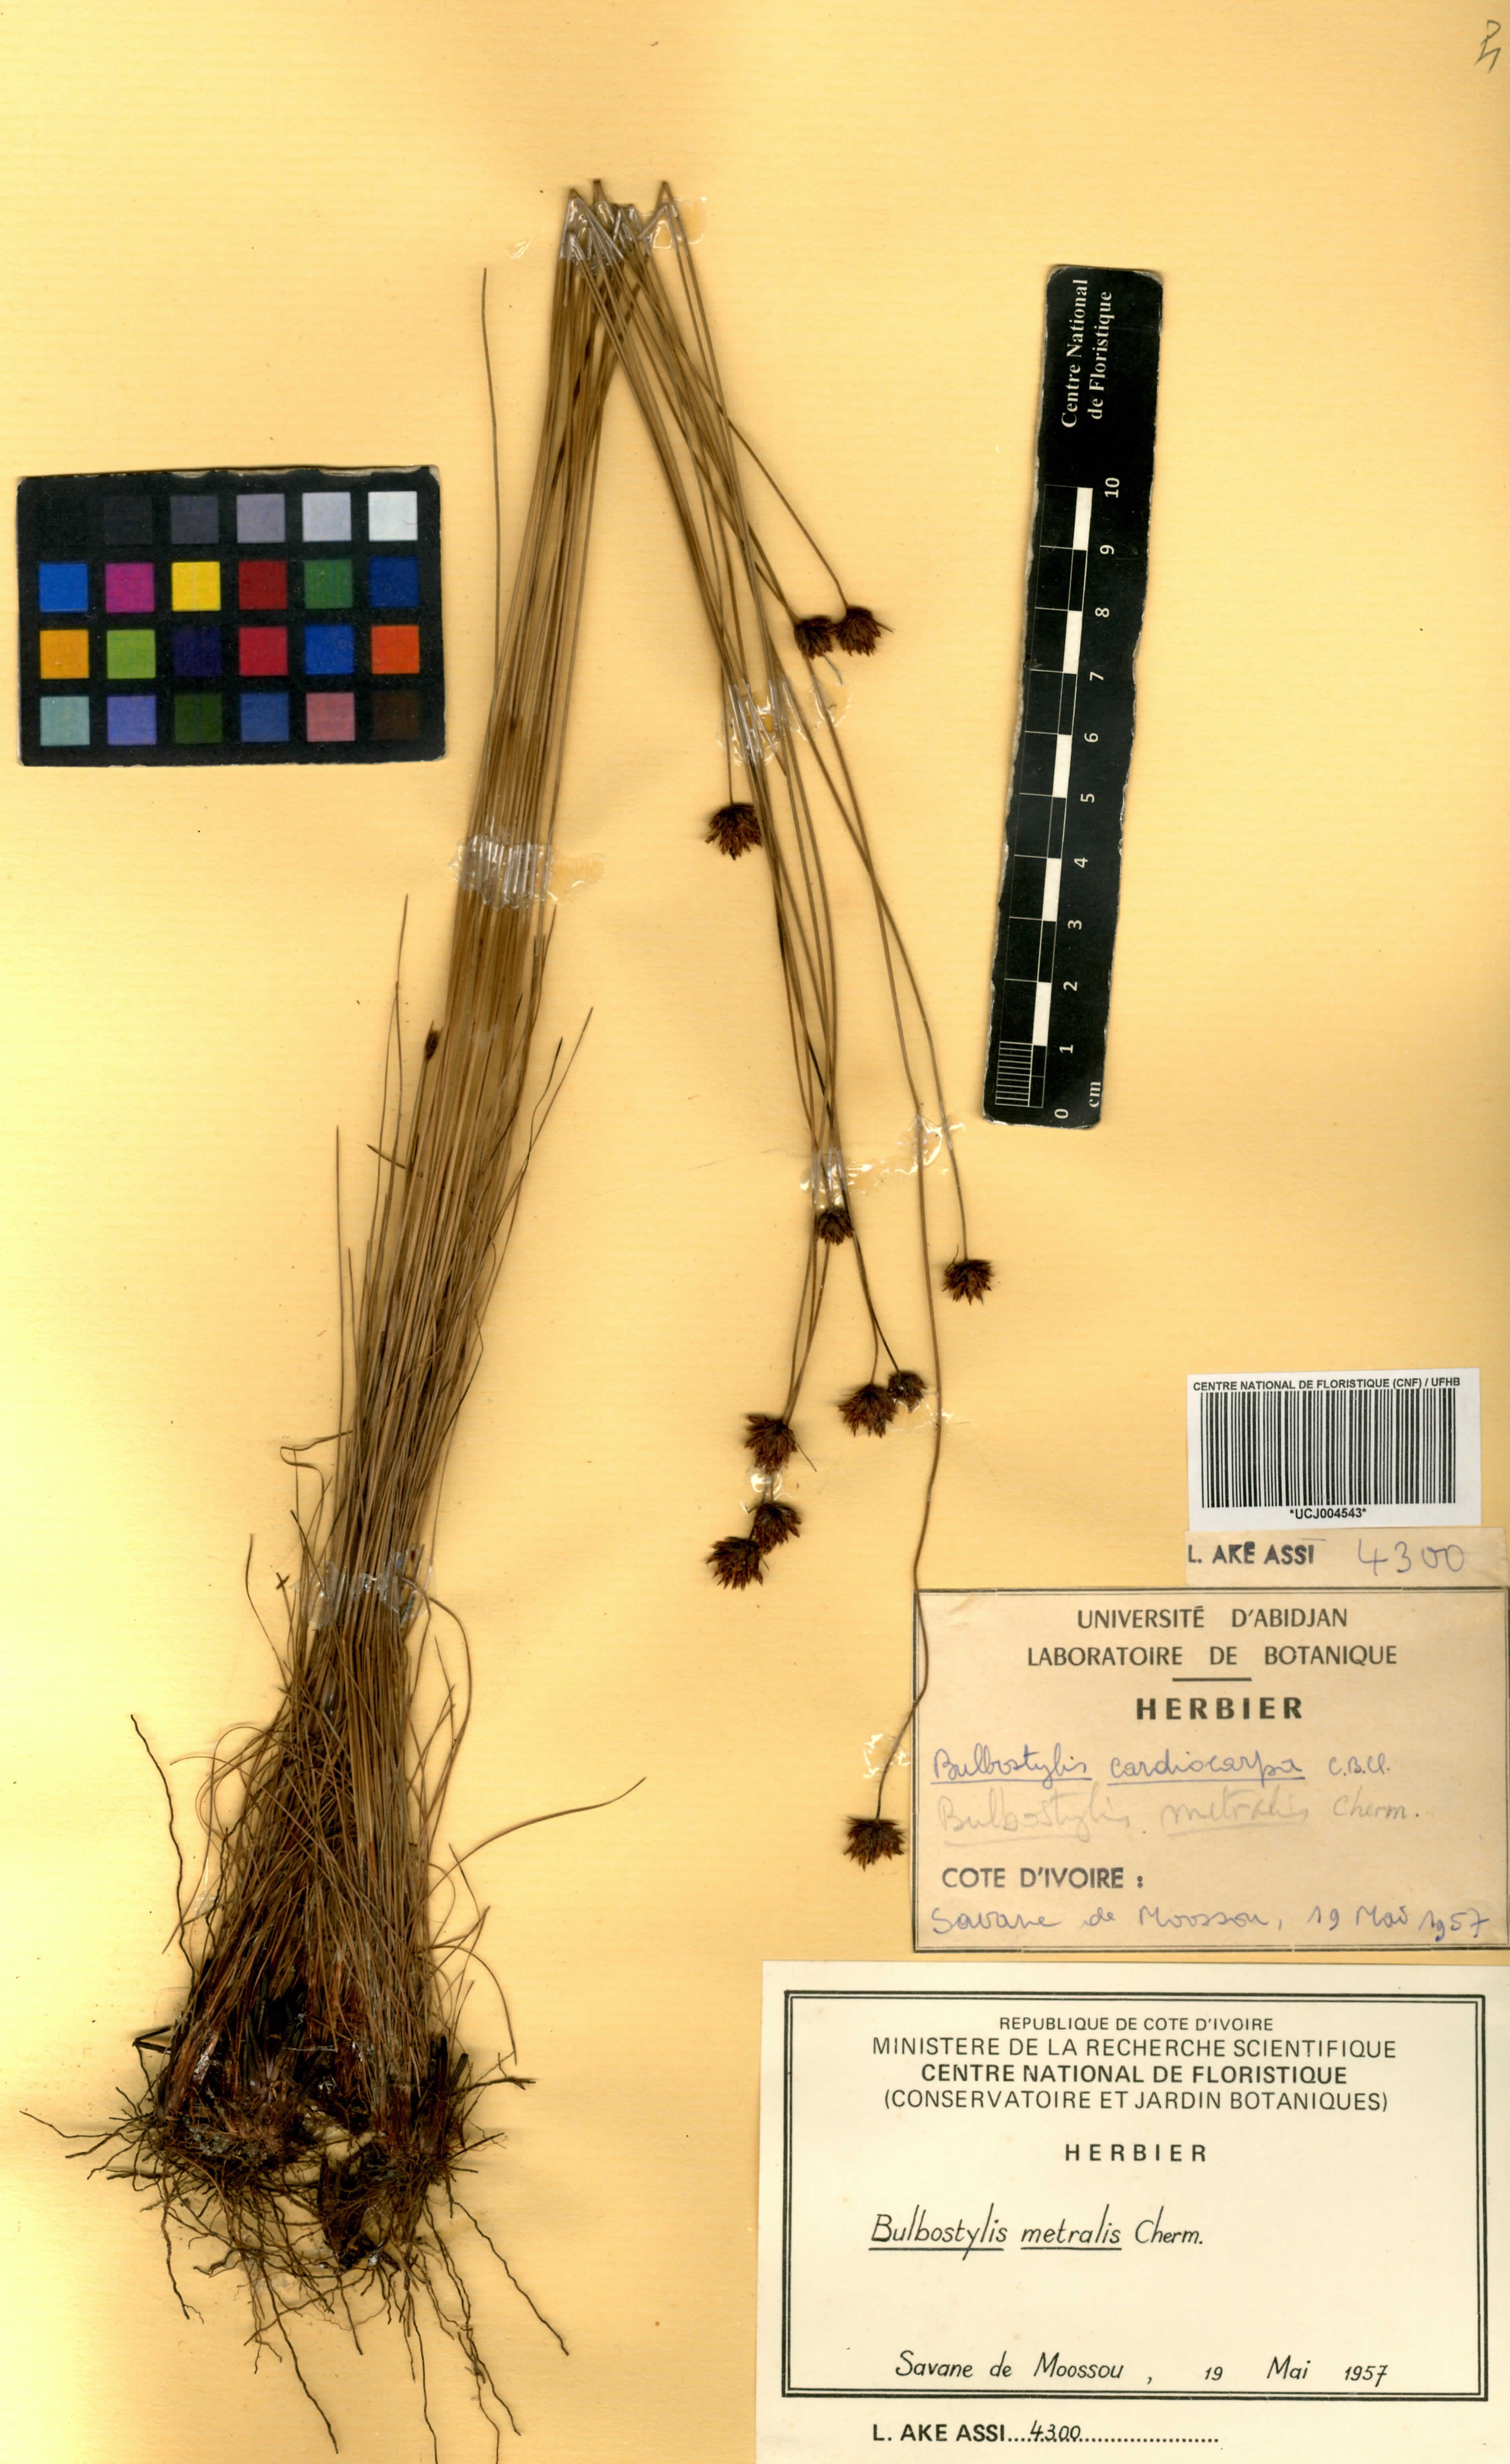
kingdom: Plantae
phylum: Tracheophyta
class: Liliopsida
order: Poales
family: Cyperaceae
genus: Bulbostylis
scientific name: Bulbostylis filamentosa
